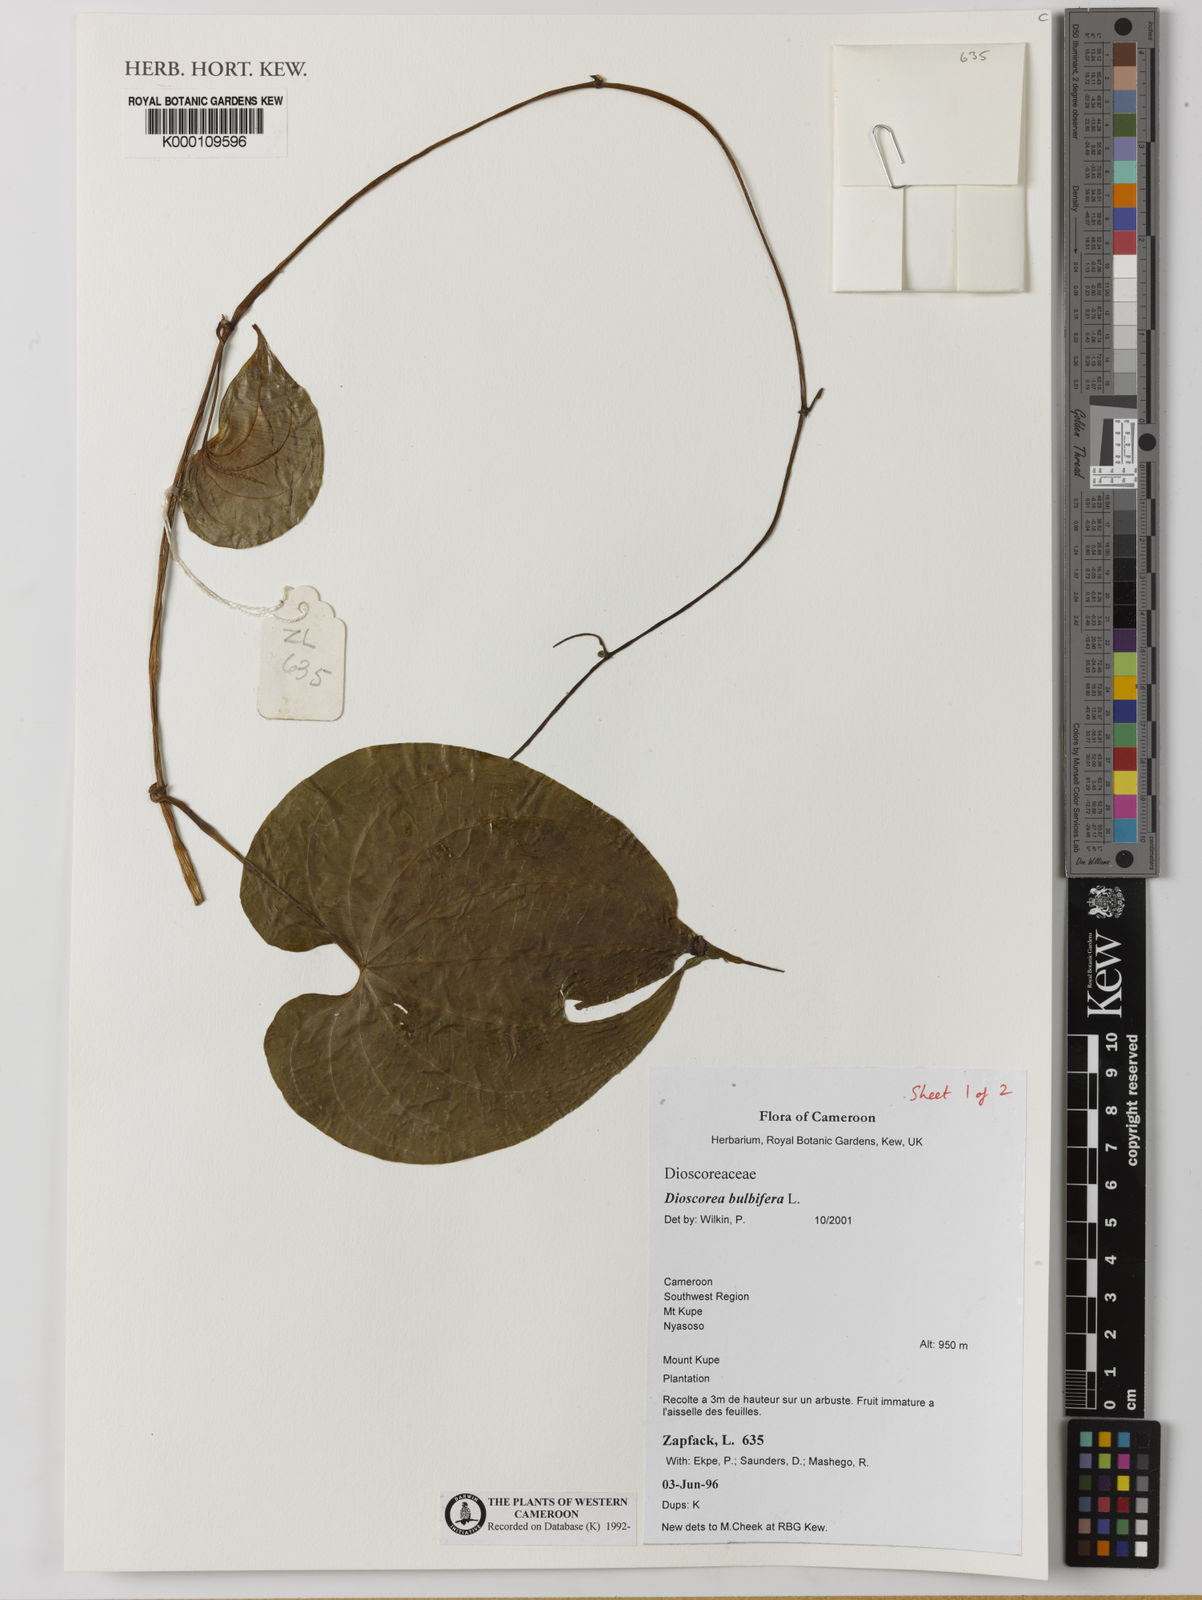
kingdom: Plantae
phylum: Tracheophyta
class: Liliopsida
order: Dioscoreales
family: Dioscoreaceae
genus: Dioscorea
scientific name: Dioscorea bulbifera
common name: Air yam
